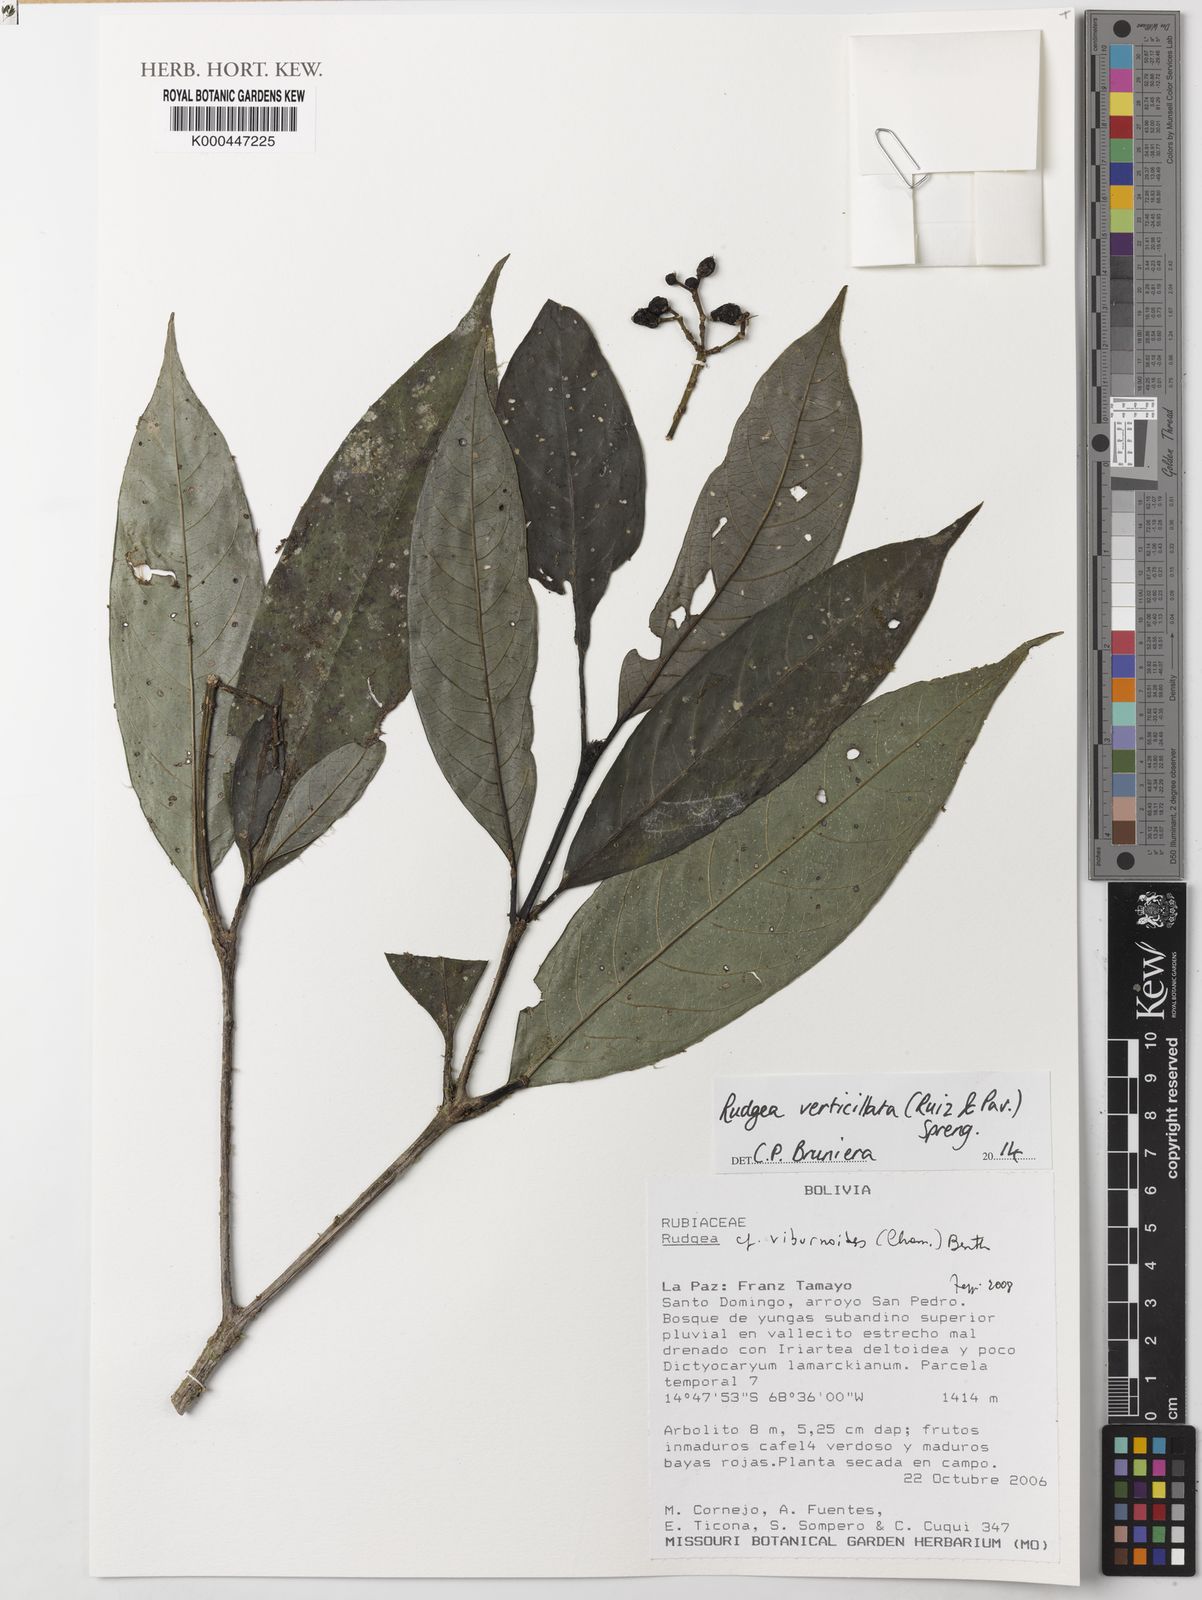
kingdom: Plantae
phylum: Tracheophyta
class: Magnoliopsida
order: Gentianales
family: Rubiaceae
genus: Rudgea
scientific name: Rudgea verticillata
